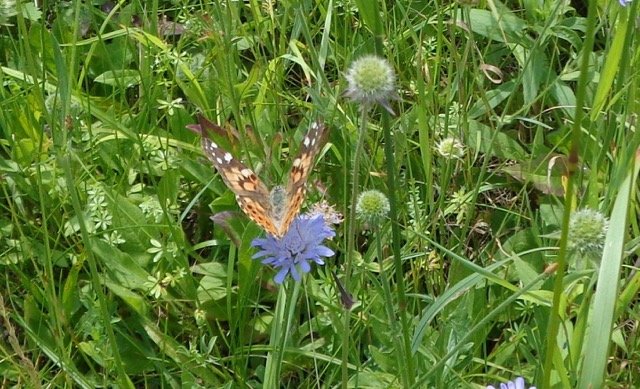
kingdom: Animalia
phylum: Arthropoda
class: Insecta
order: Lepidoptera
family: Nymphalidae
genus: Vanessa
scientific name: Vanessa cardui
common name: Painted Lady
